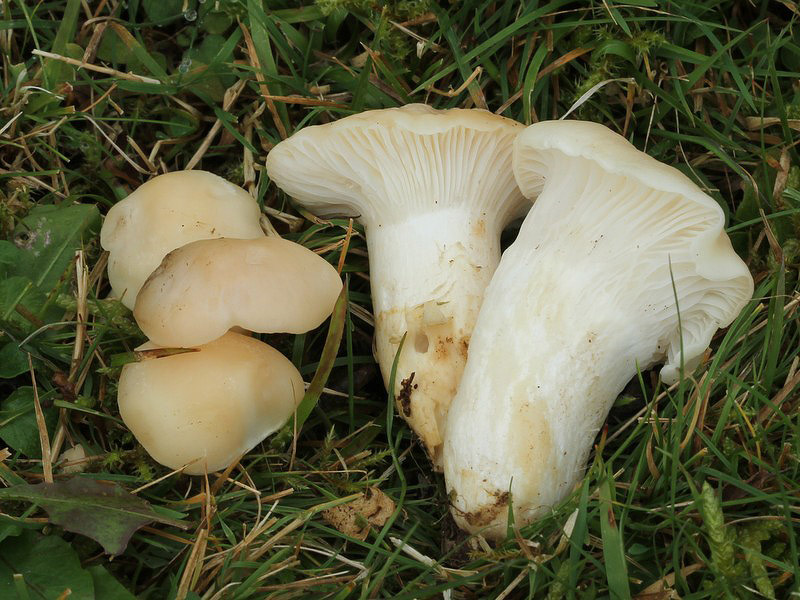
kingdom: Fungi
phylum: Basidiomycota
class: Agaricomycetes
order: Agaricales
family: Hygrophoraceae
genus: Cuphophyllus
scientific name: Cuphophyllus pratensis
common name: bleg vokshat
